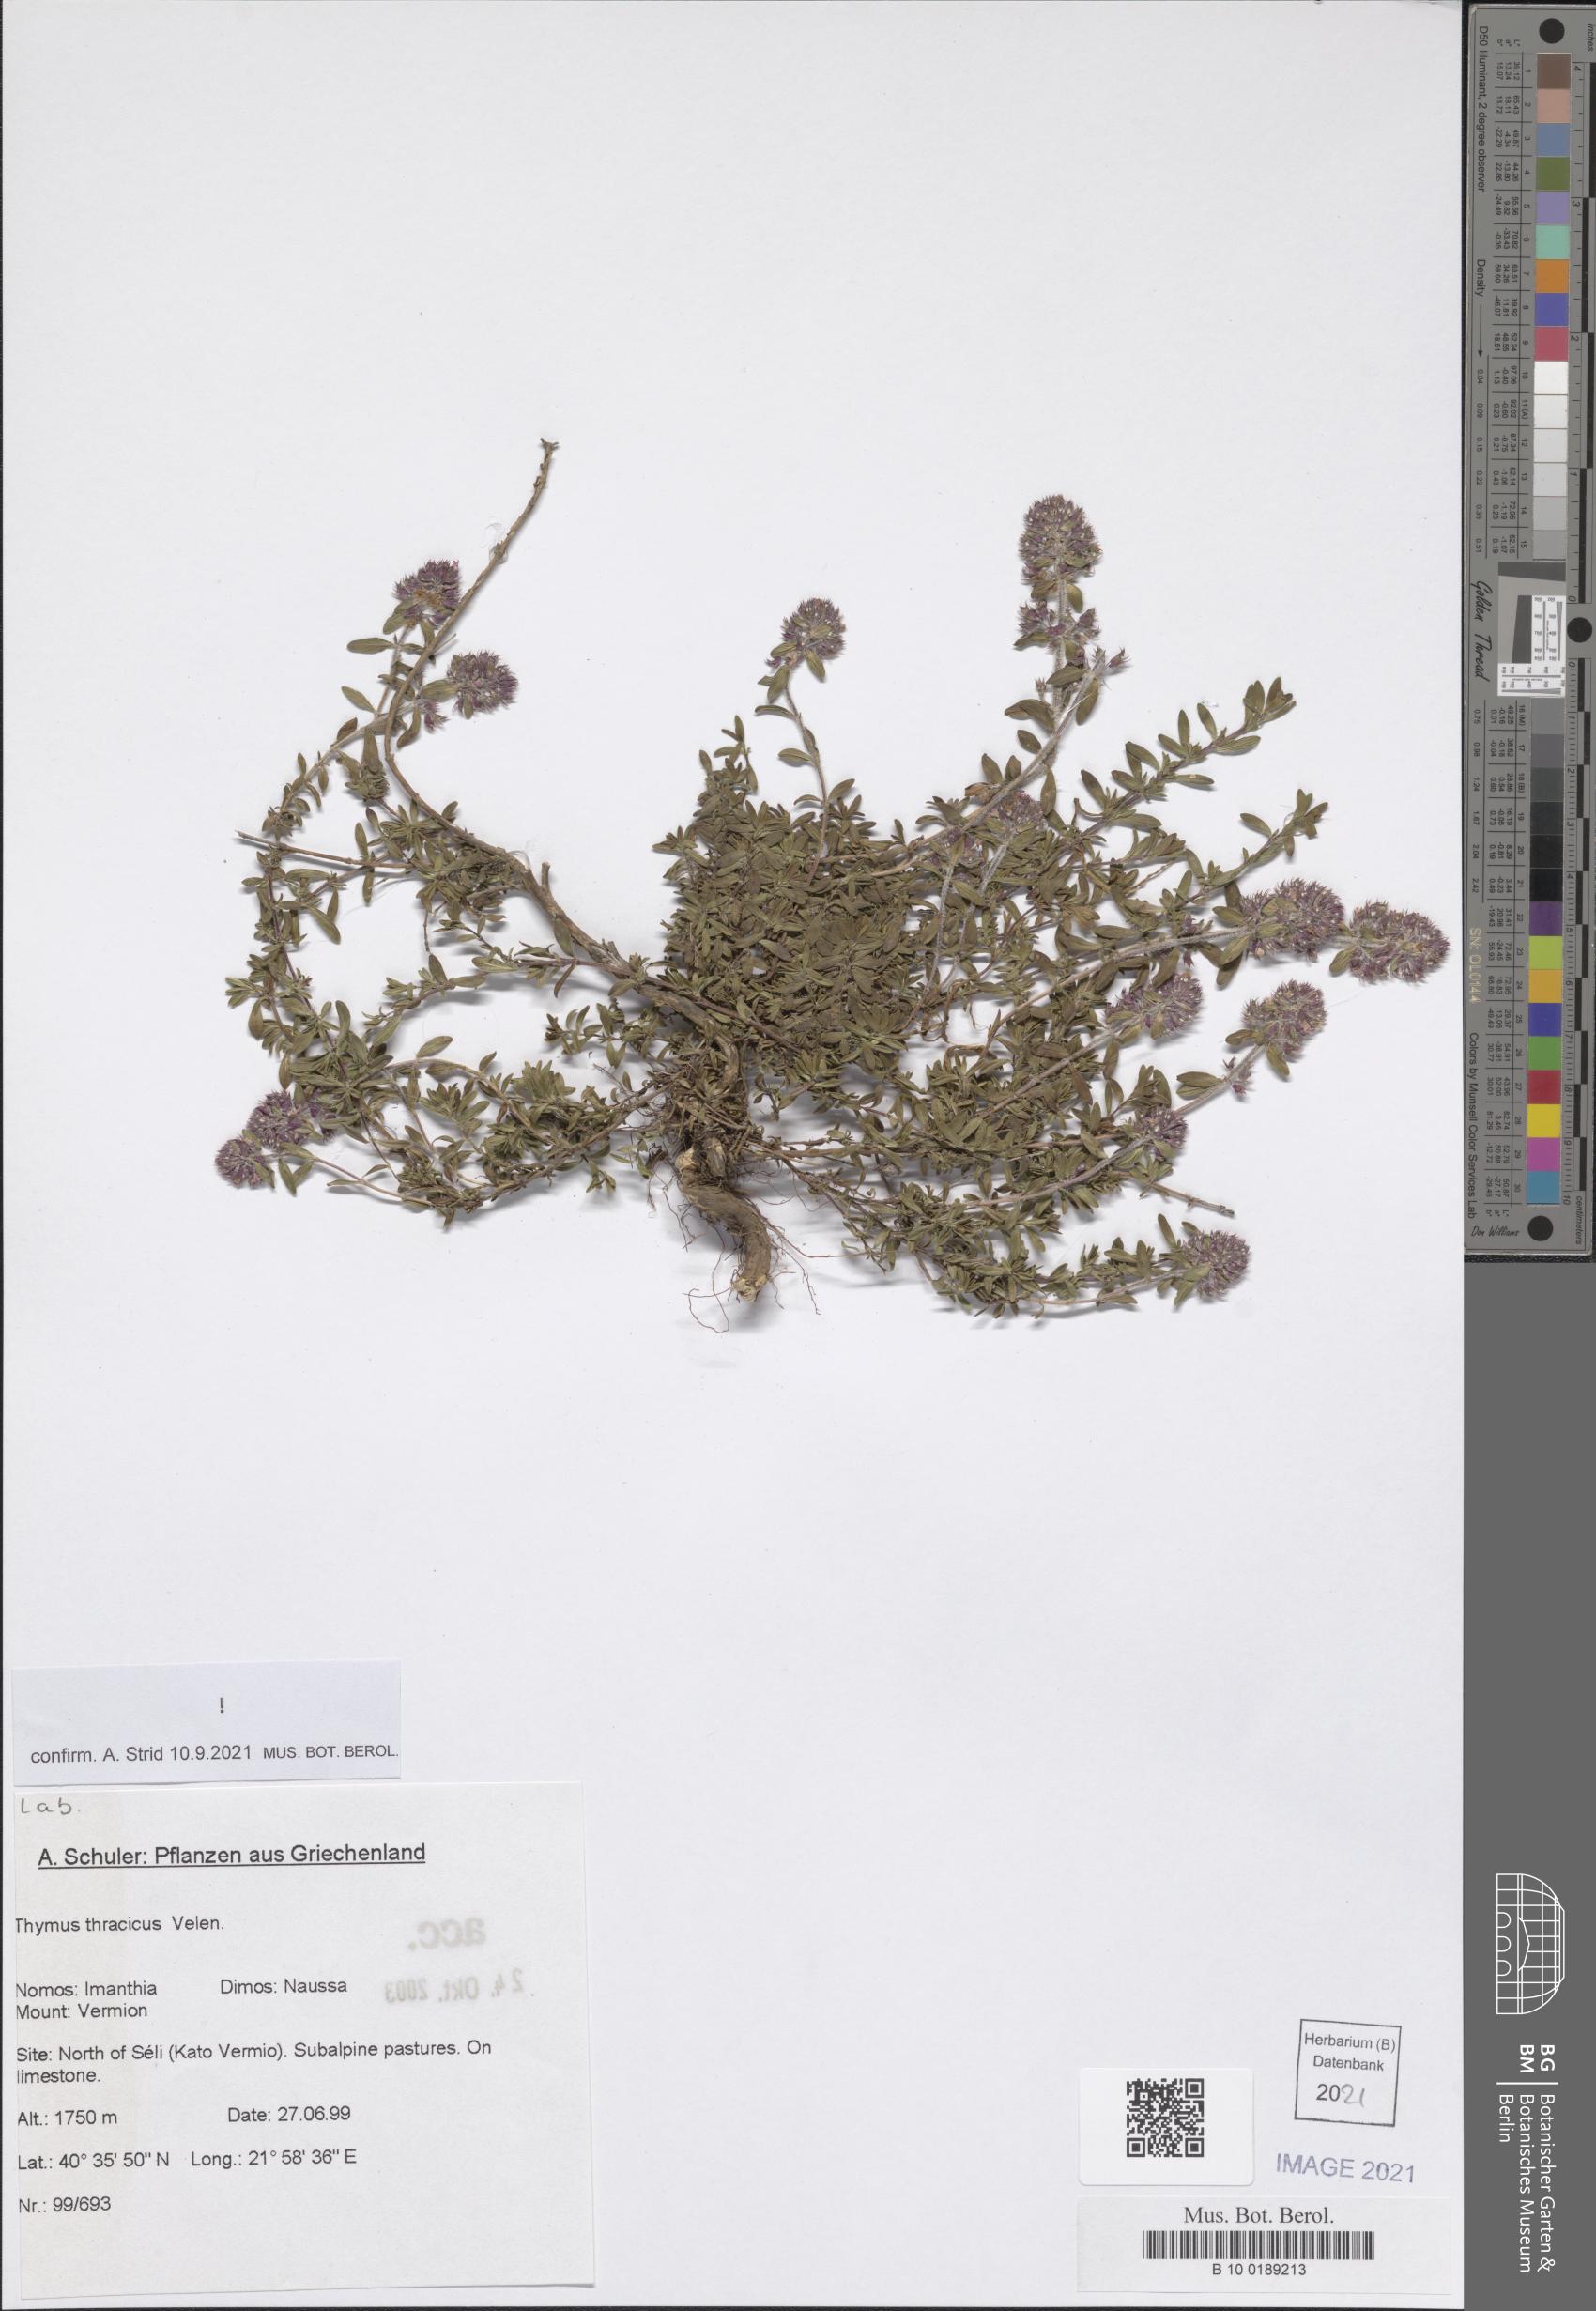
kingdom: Plantae
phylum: Tracheophyta
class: Magnoliopsida
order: Lamiales
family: Lamiaceae
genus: Thymus
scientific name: Thymus thracicus
